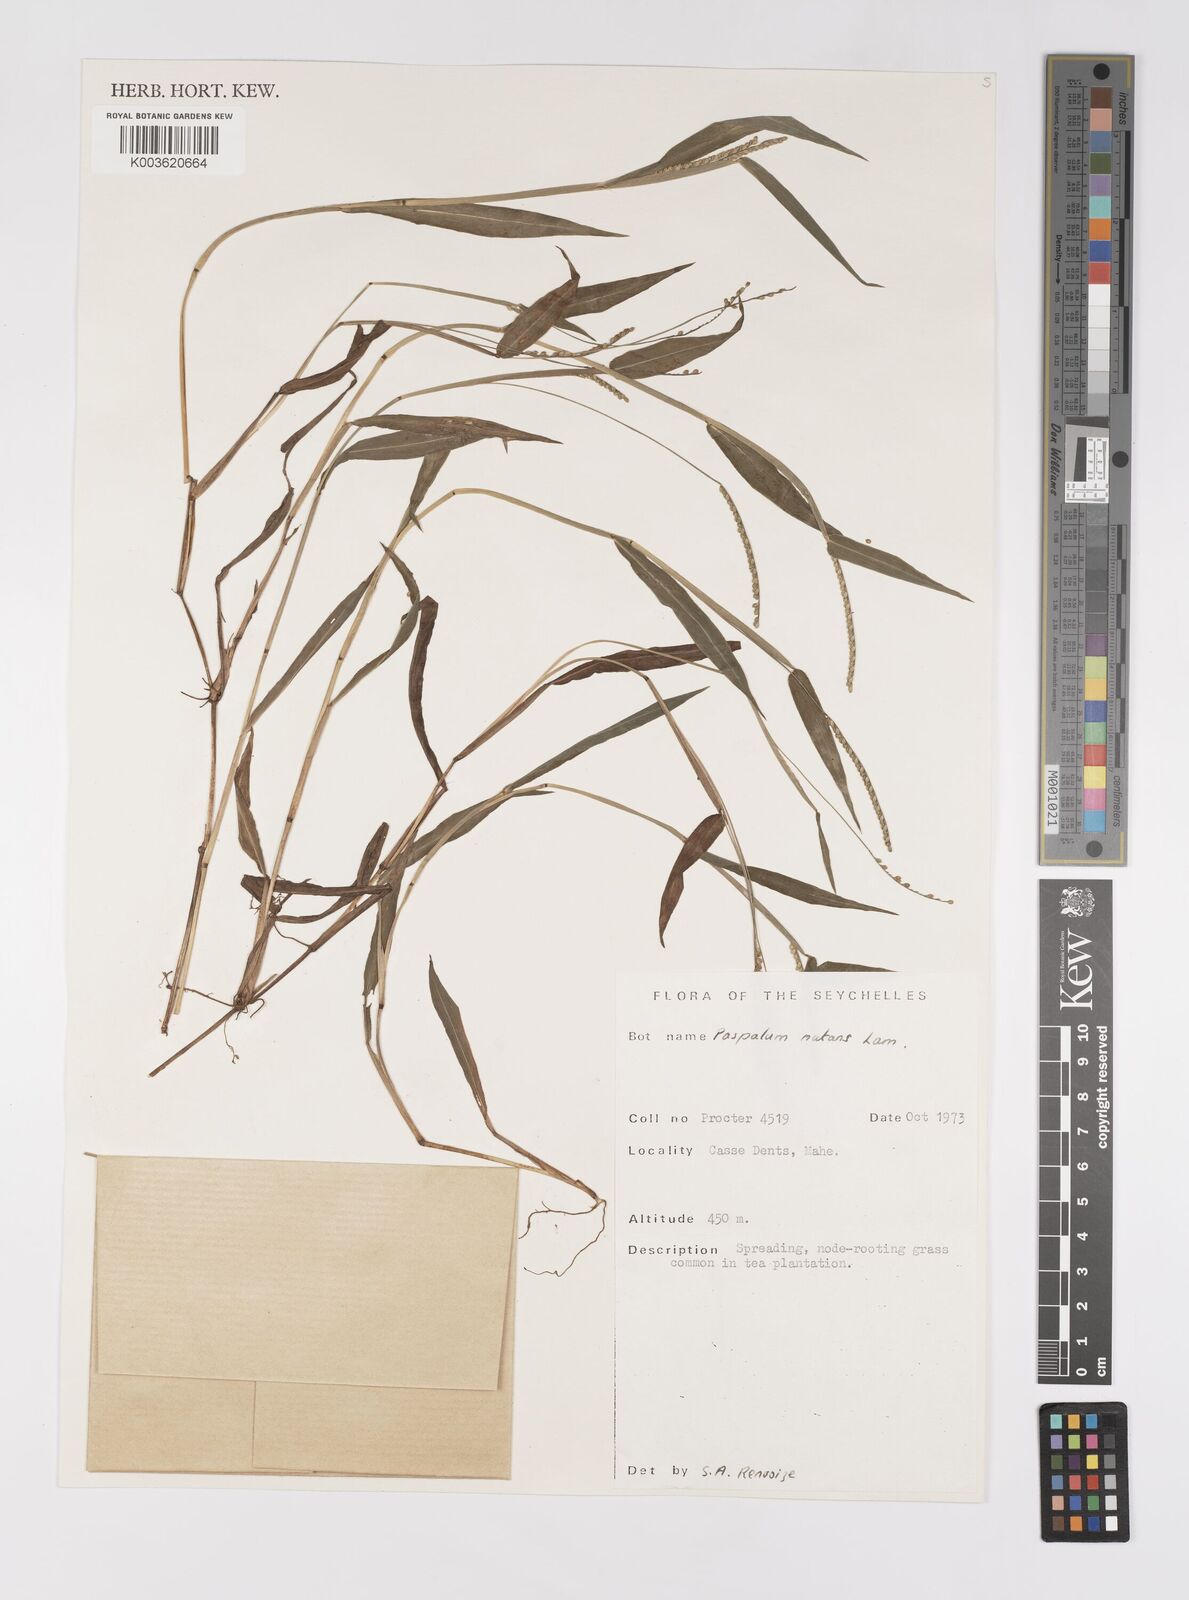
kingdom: Plantae
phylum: Tracheophyta
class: Liliopsida
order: Poales
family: Poaceae
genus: Paspalum
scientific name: Paspalum nutans
